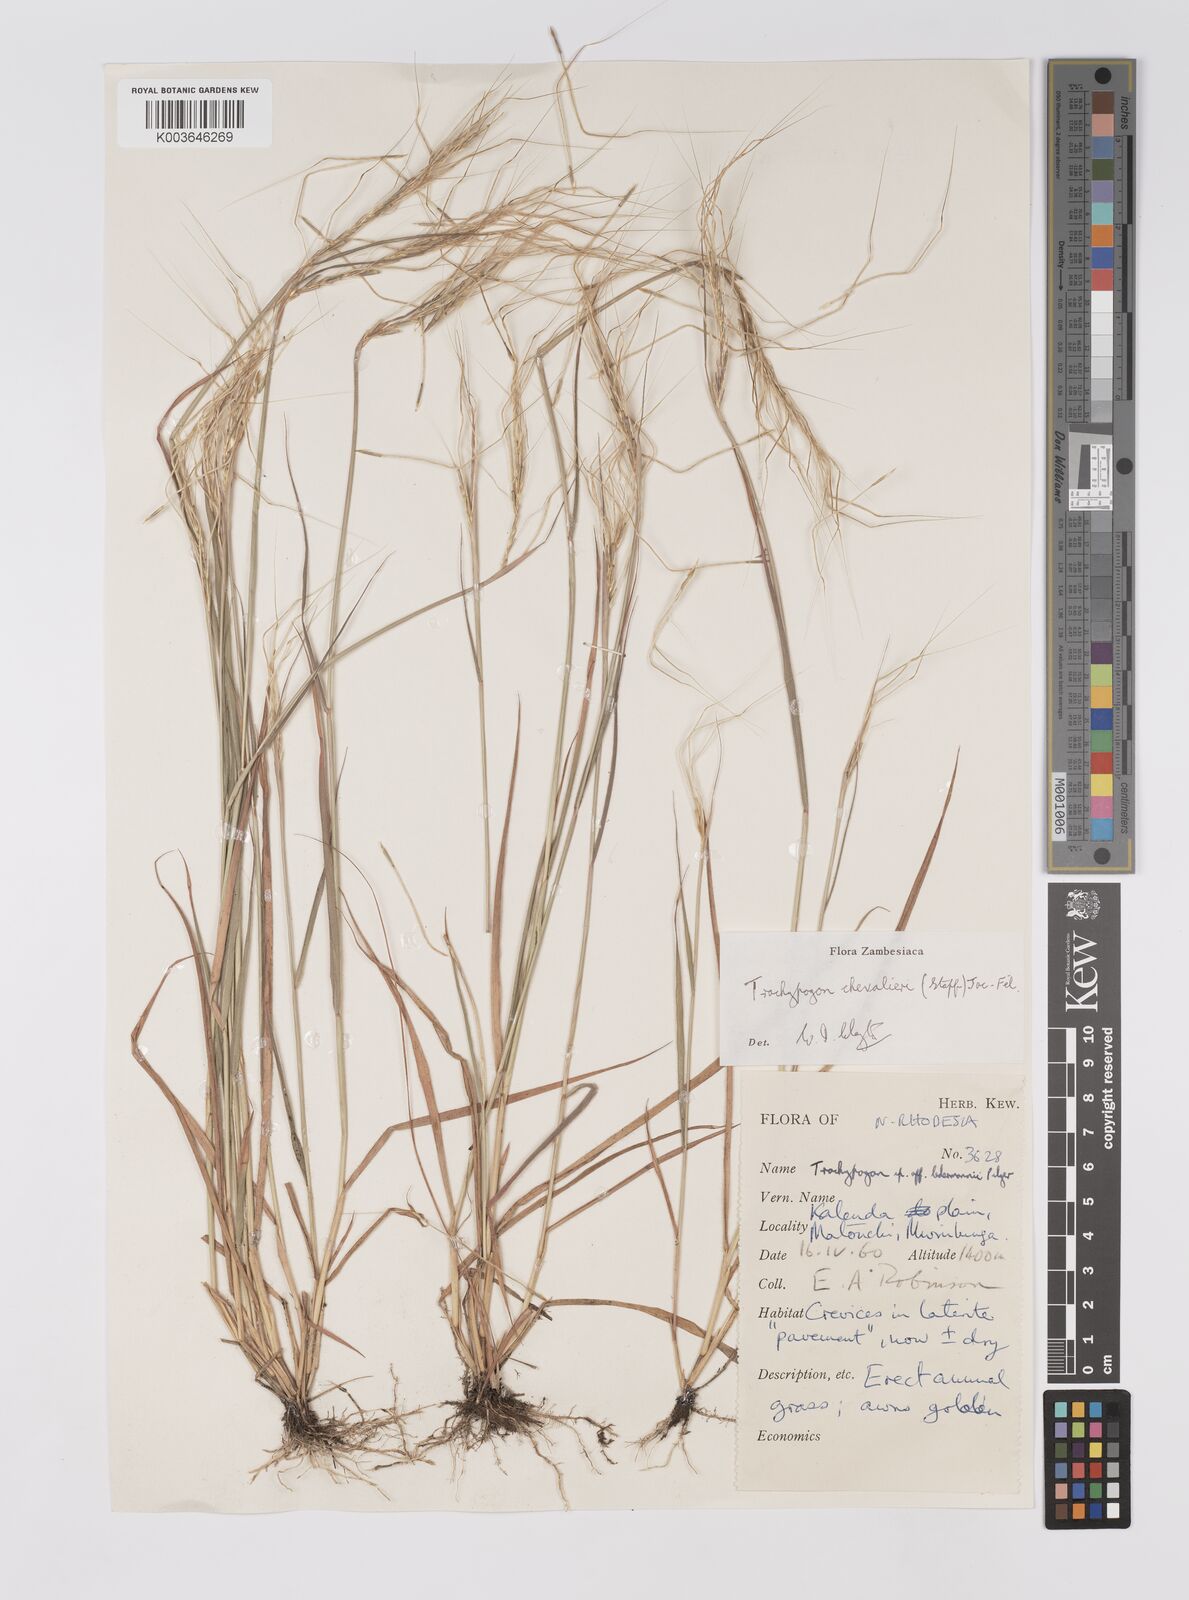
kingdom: Plantae
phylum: Tracheophyta
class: Liliopsida
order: Poales
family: Poaceae
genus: Trachypogon
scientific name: Trachypogon chevalieri
